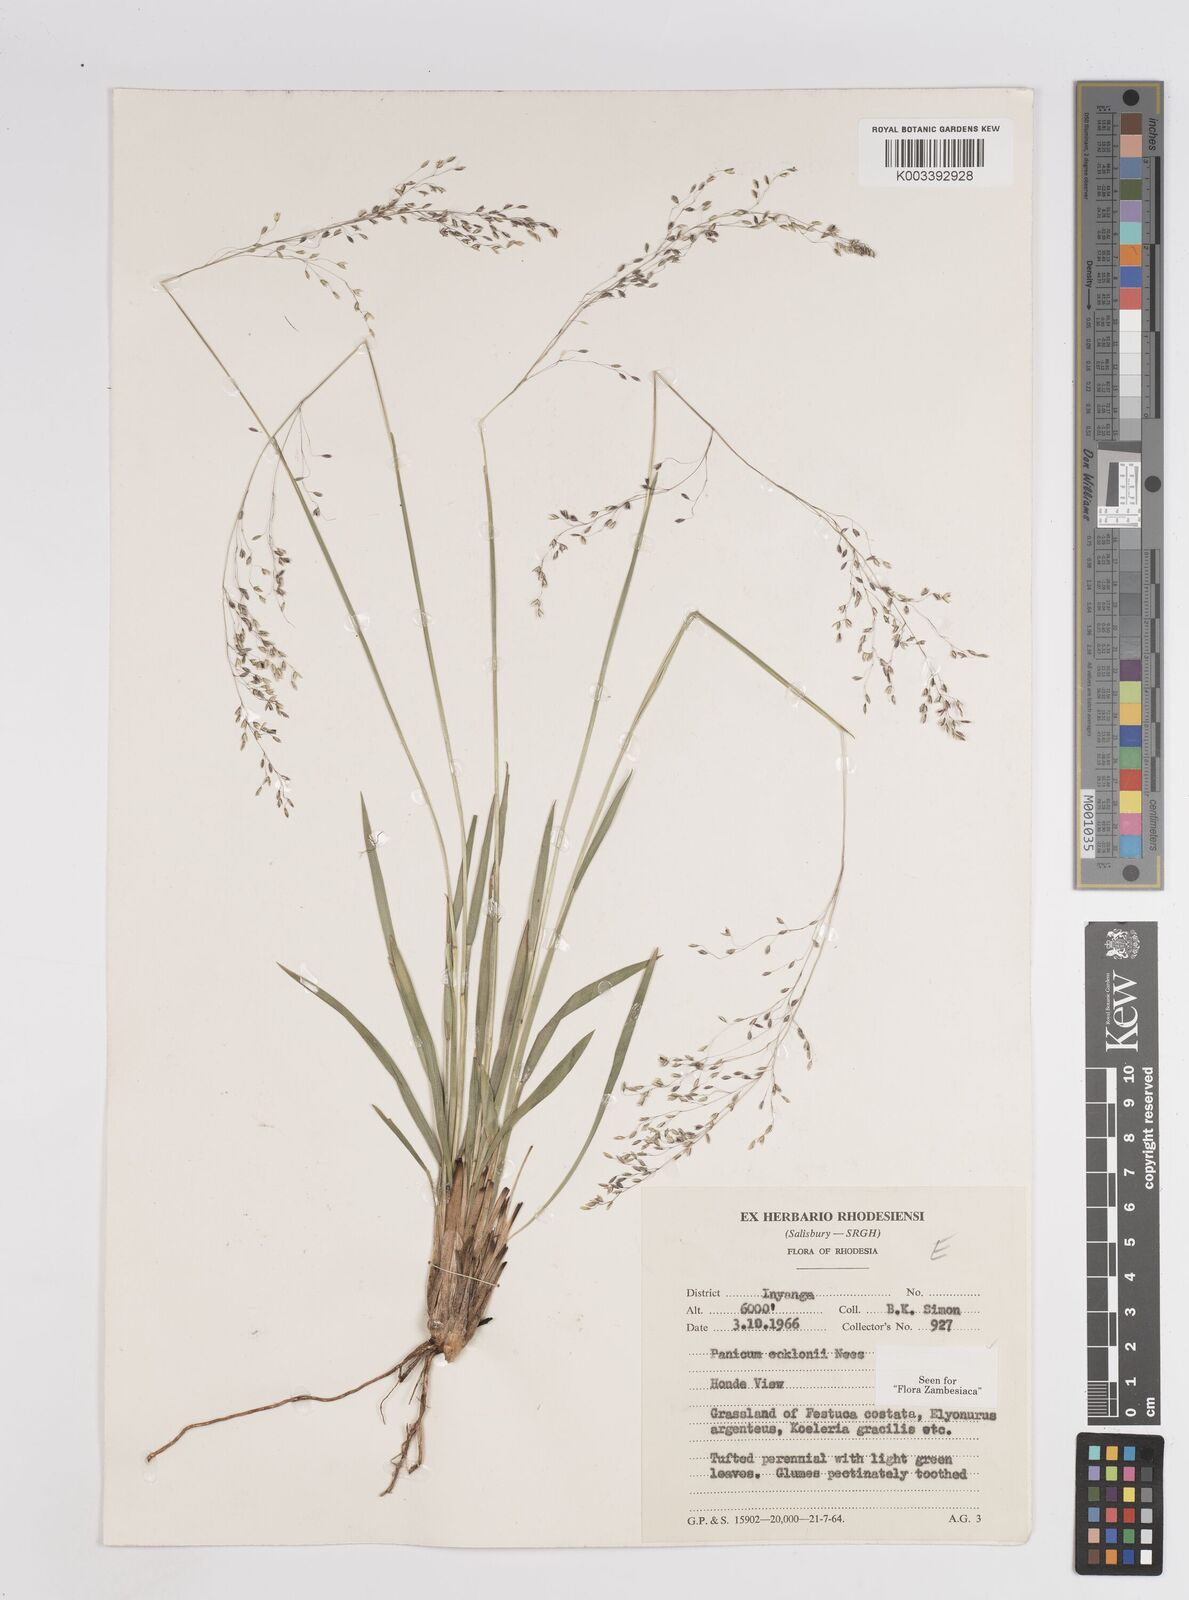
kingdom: Plantae
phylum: Tracheophyta
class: Liliopsida
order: Poales
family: Poaceae
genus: Adenochloa
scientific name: Adenochloa ecklonii
